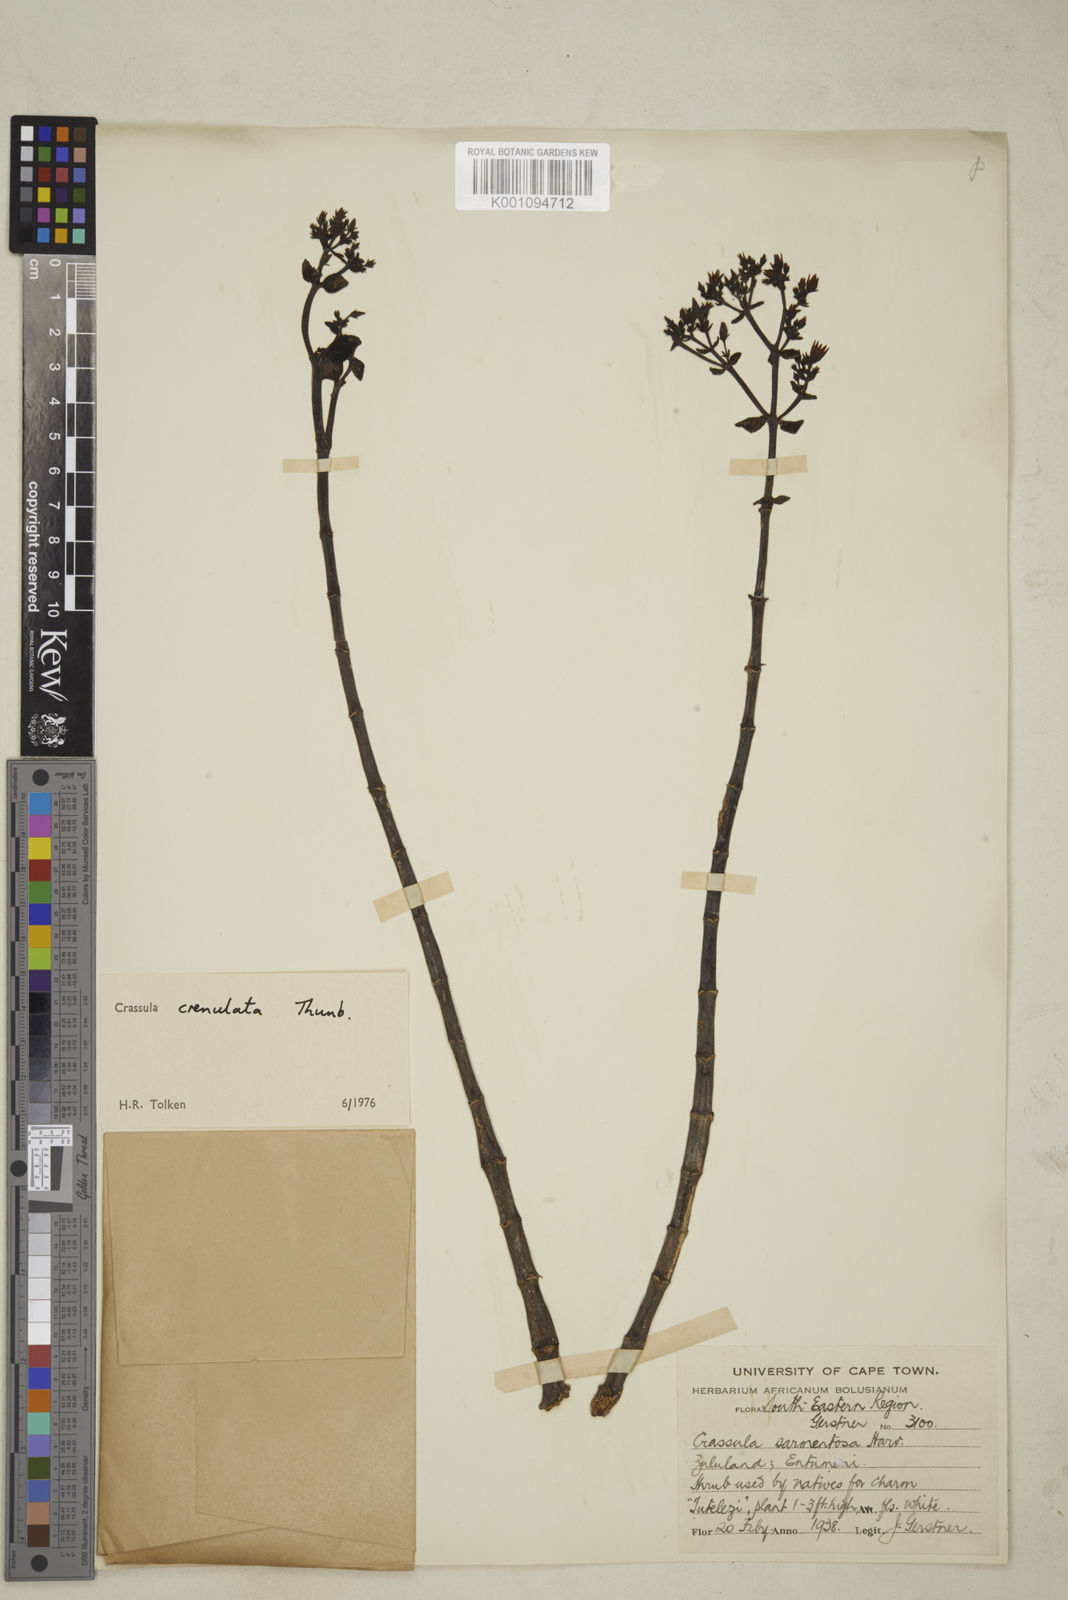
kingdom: Plantae
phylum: Tracheophyta
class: Magnoliopsida
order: Saxifragales
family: Crassulaceae
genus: Crassula
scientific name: Crassula crenulata
